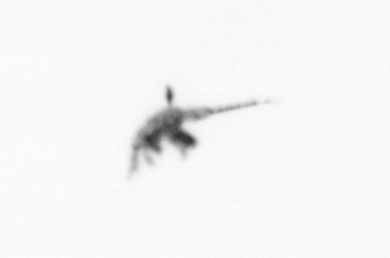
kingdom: Animalia
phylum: Arthropoda
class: Copepoda
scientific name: Copepoda
